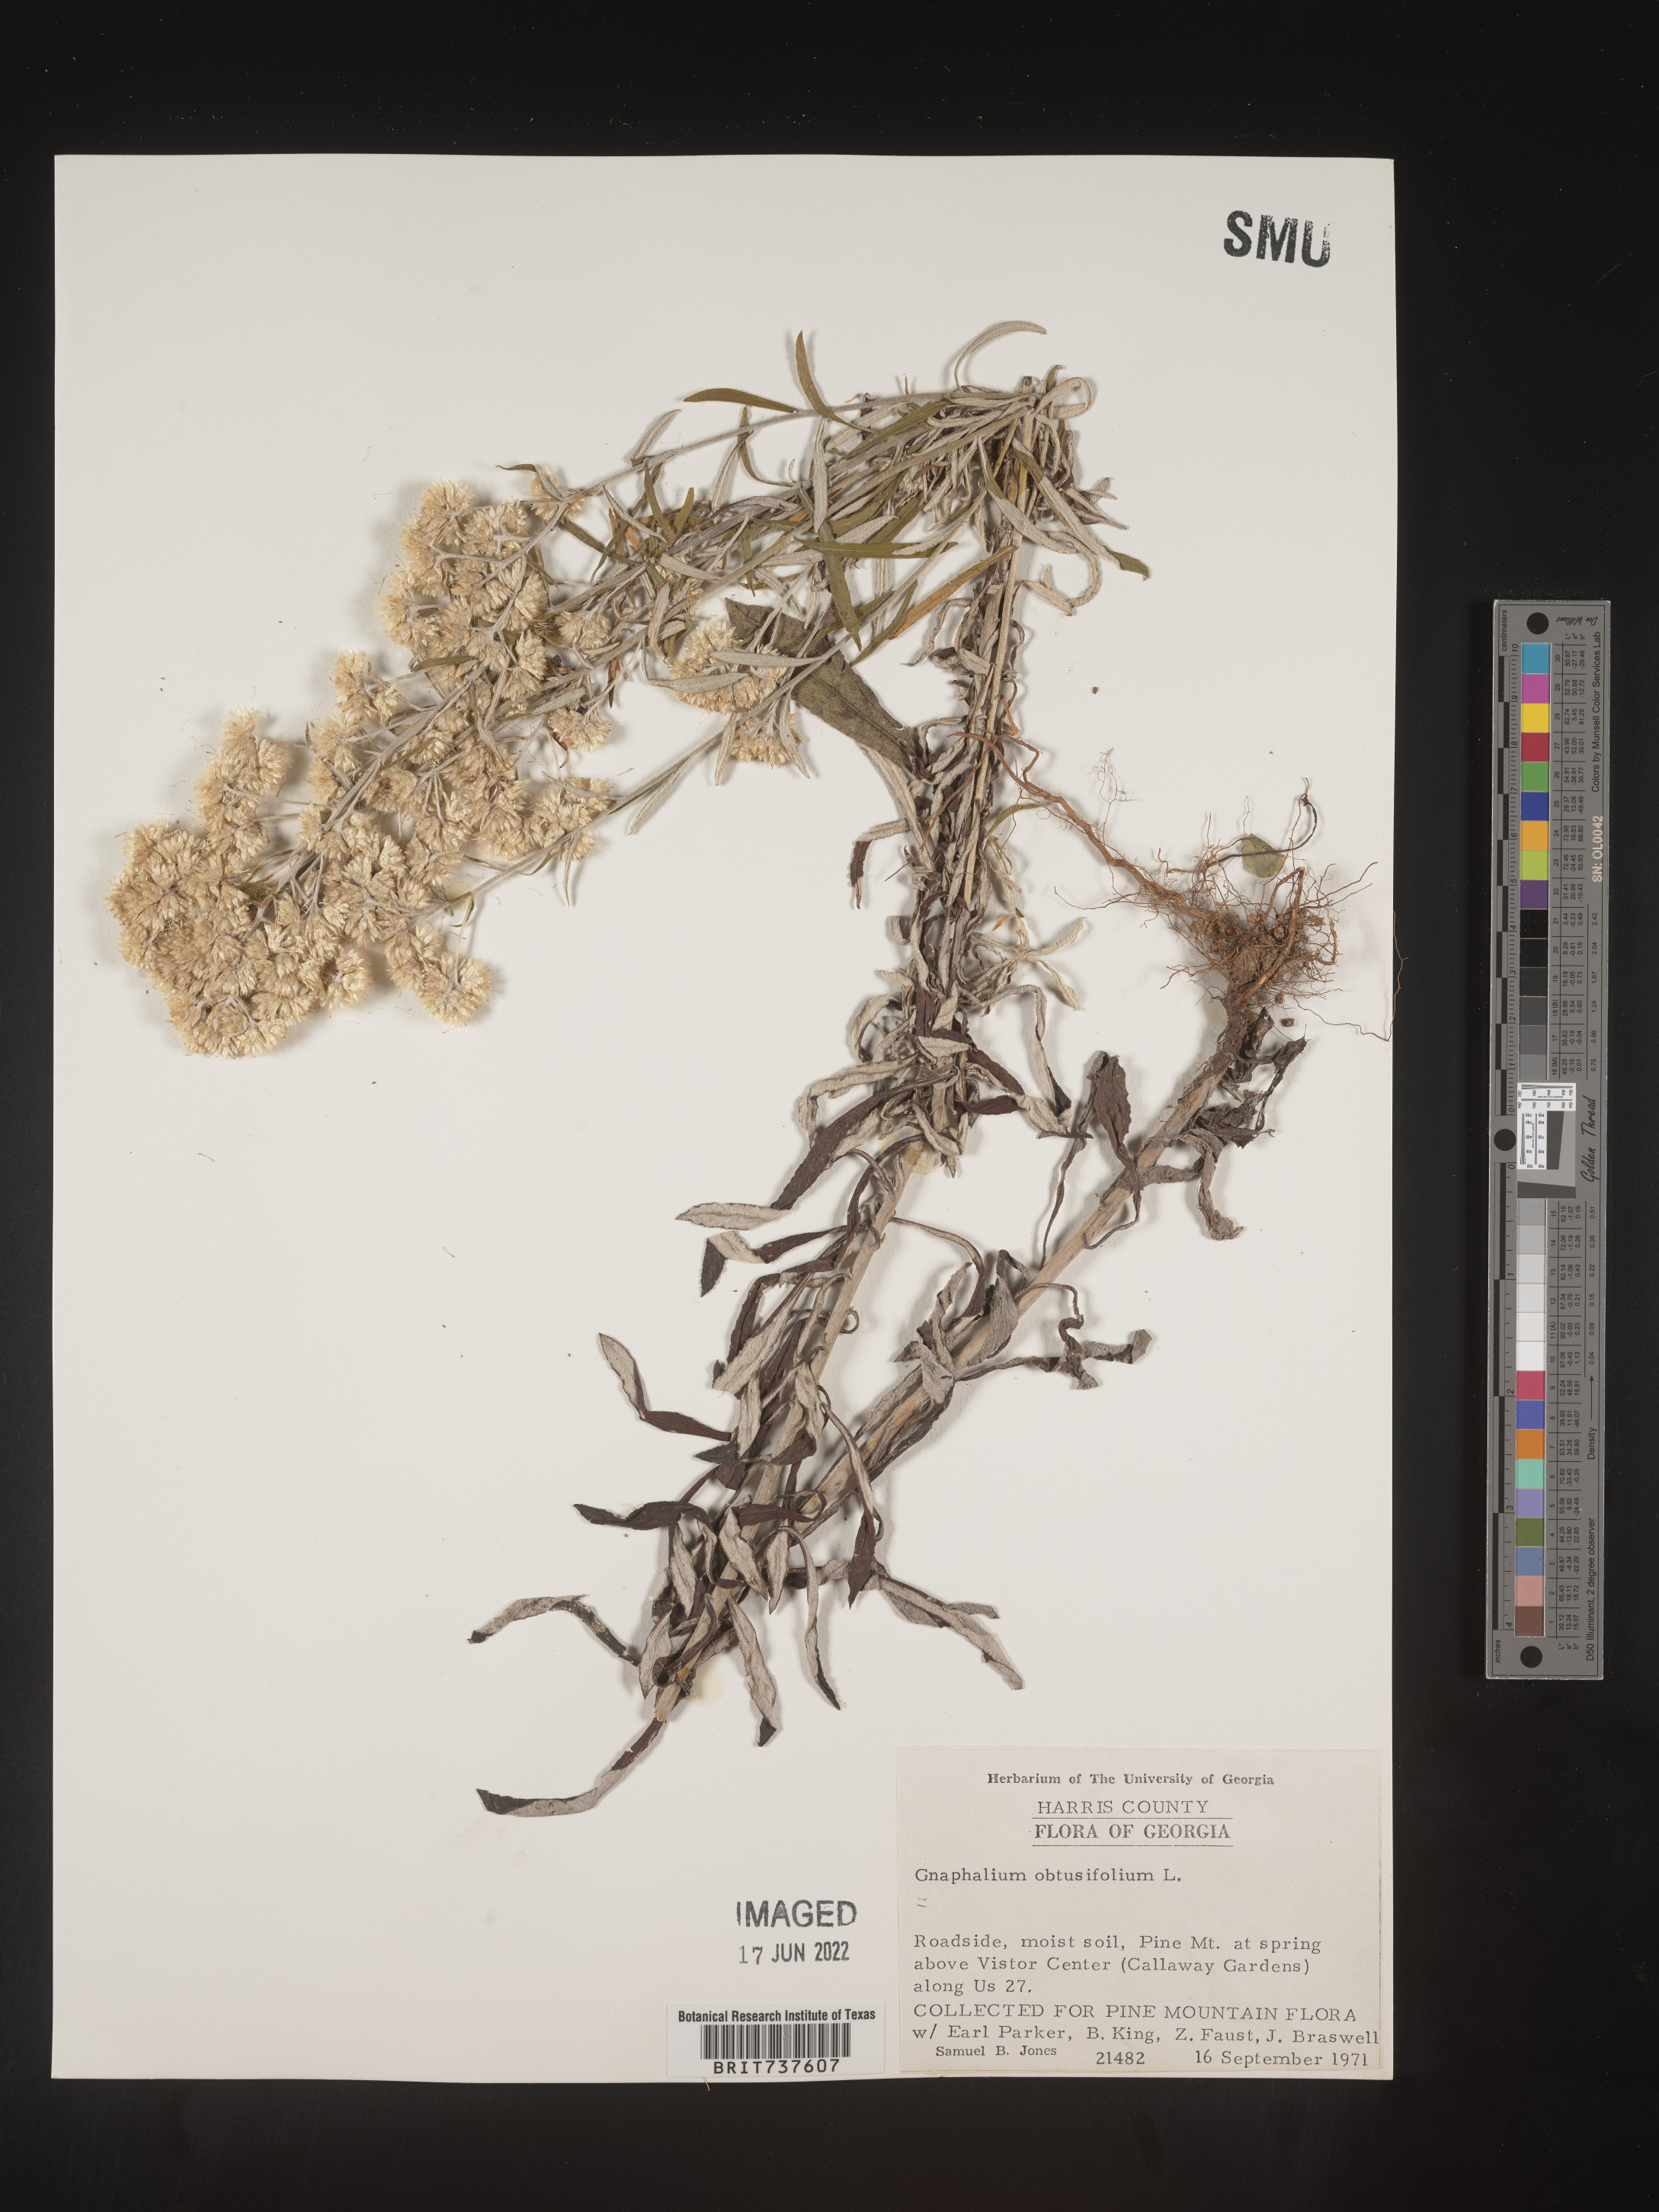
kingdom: Plantae
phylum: Tracheophyta
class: Magnoliopsida
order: Asterales
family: Asteraceae
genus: Pseudognaphalium
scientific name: Pseudognaphalium obtusifolium
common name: Eastern rabbit-tobacco
